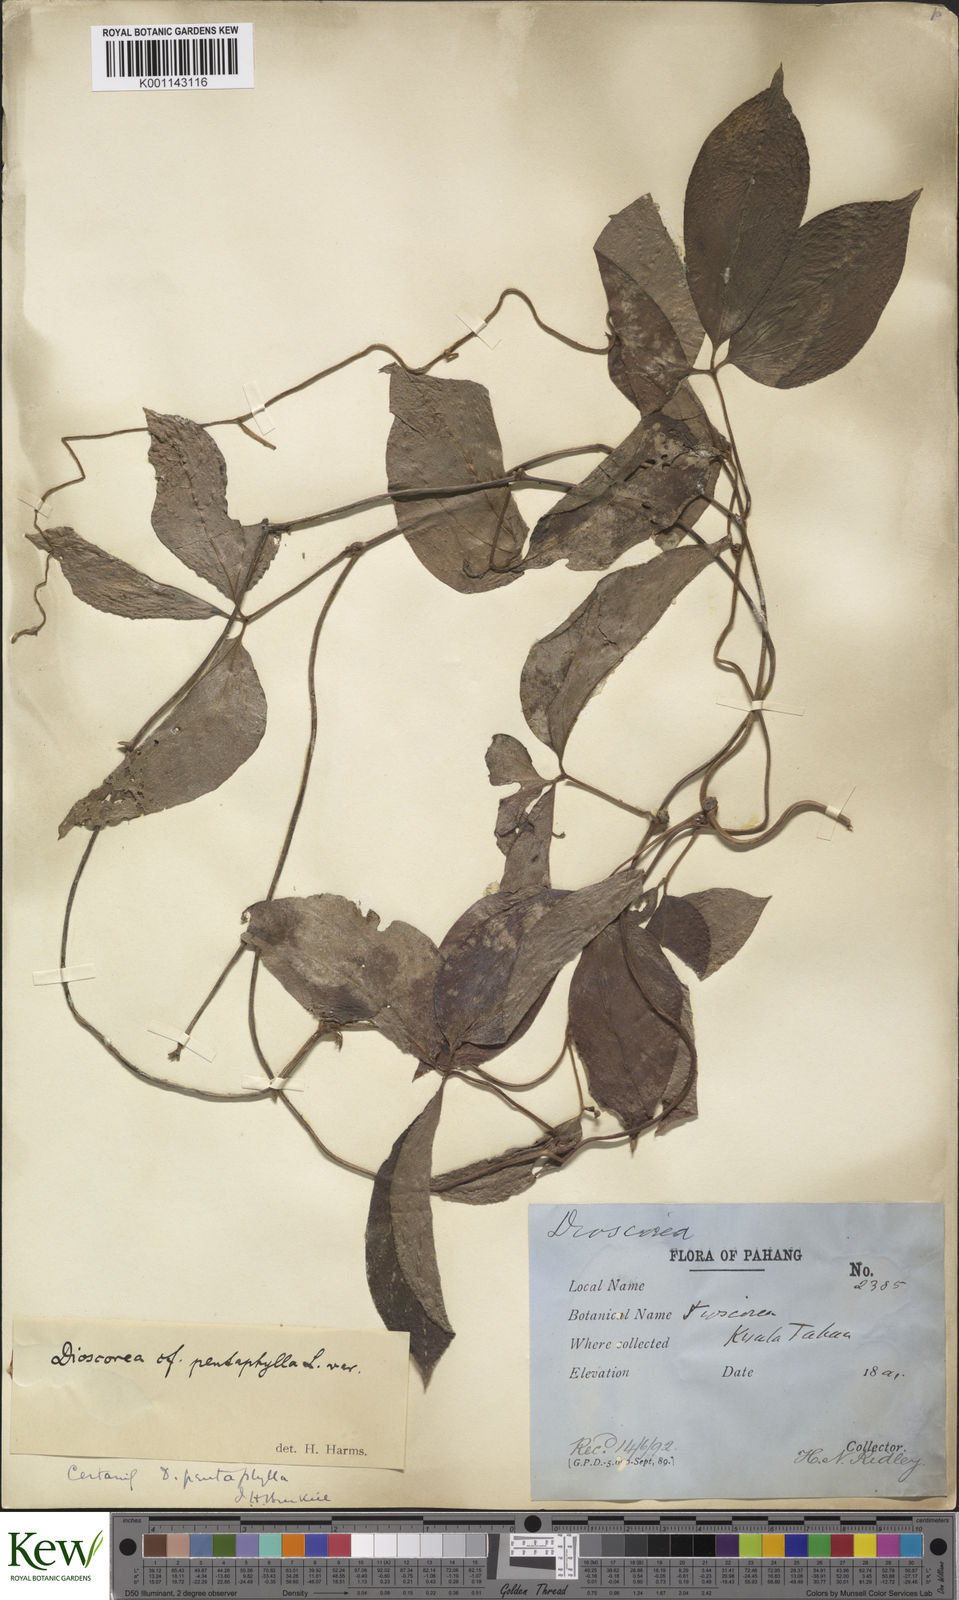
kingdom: Plantae
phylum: Tracheophyta
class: Liliopsida
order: Dioscoreales
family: Dioscoreaceae
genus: Dioscorea
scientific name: Dioscorea pentaphylla
